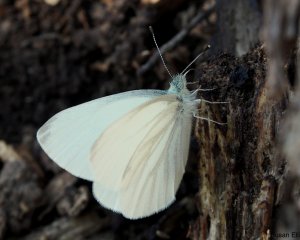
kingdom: Animalia
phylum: Arthropoda
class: Insecta
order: Lepidoptera
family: Pieridae
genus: Pieris
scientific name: Pieris virginiensis
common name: West Virginia White
